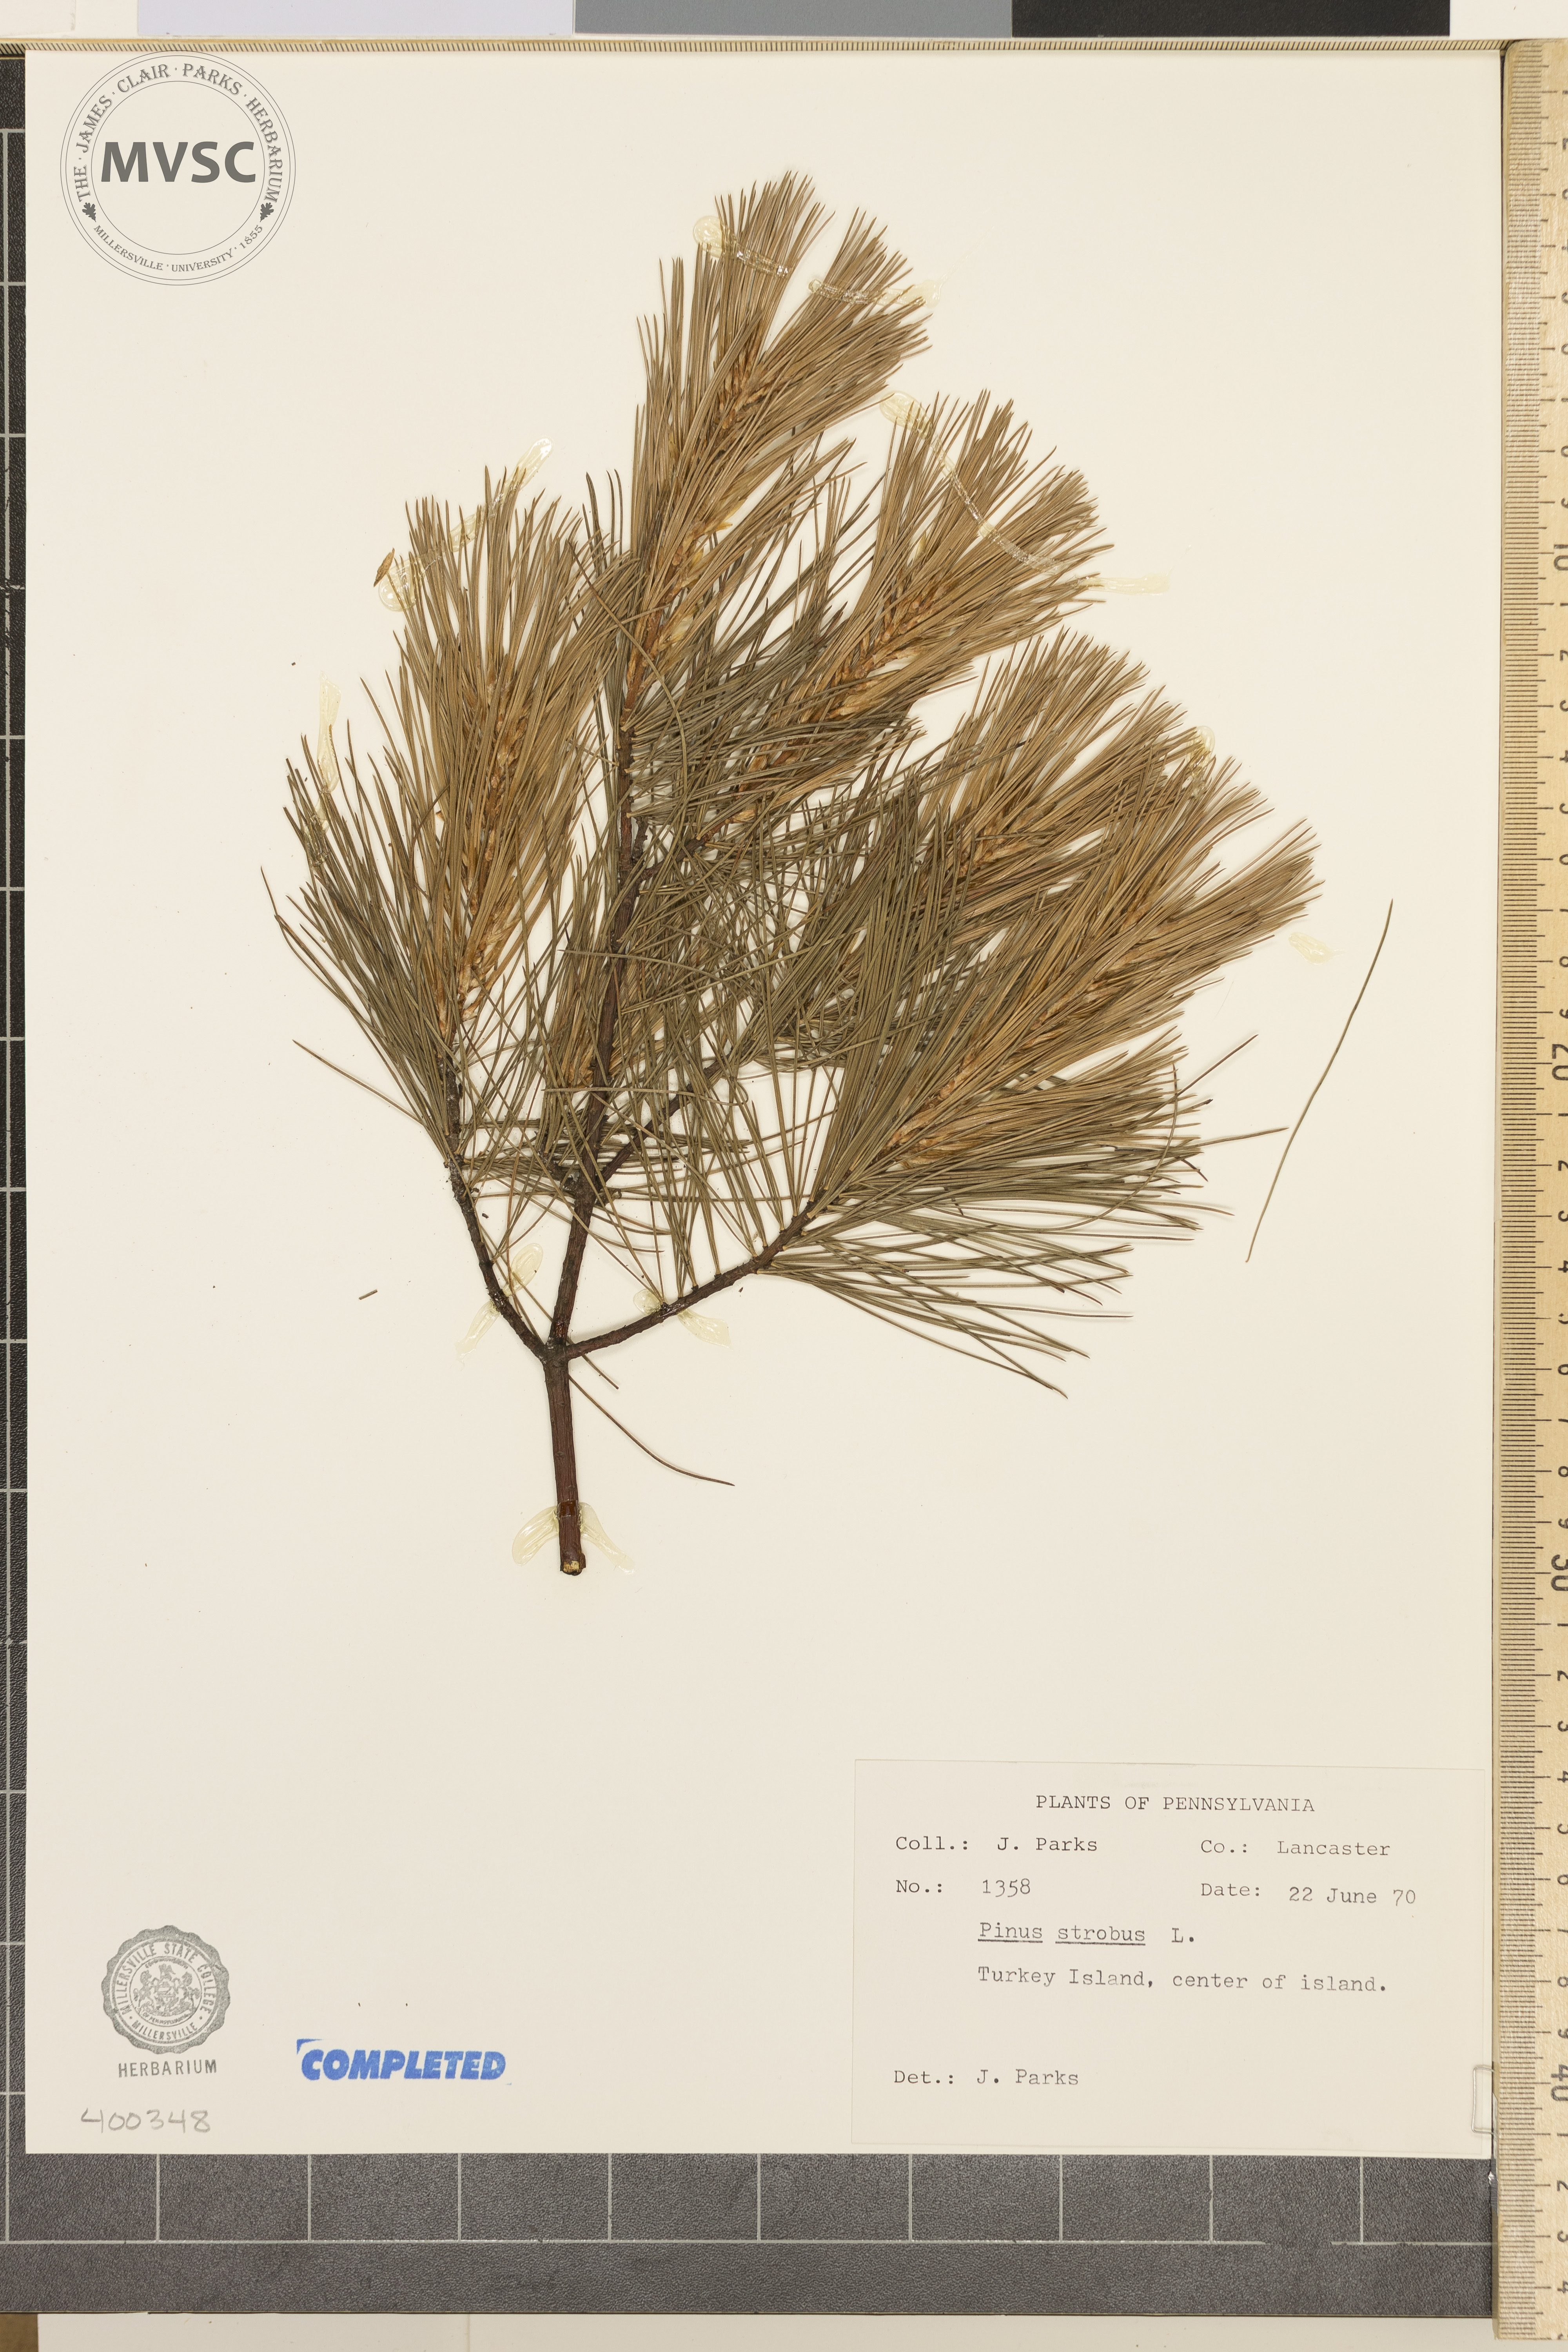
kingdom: Plantae
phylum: Tracheophyta
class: Pinopsida
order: Pinales
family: Pinaceae
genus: Pinus
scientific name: Pinus strobus
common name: Eastern white pine
